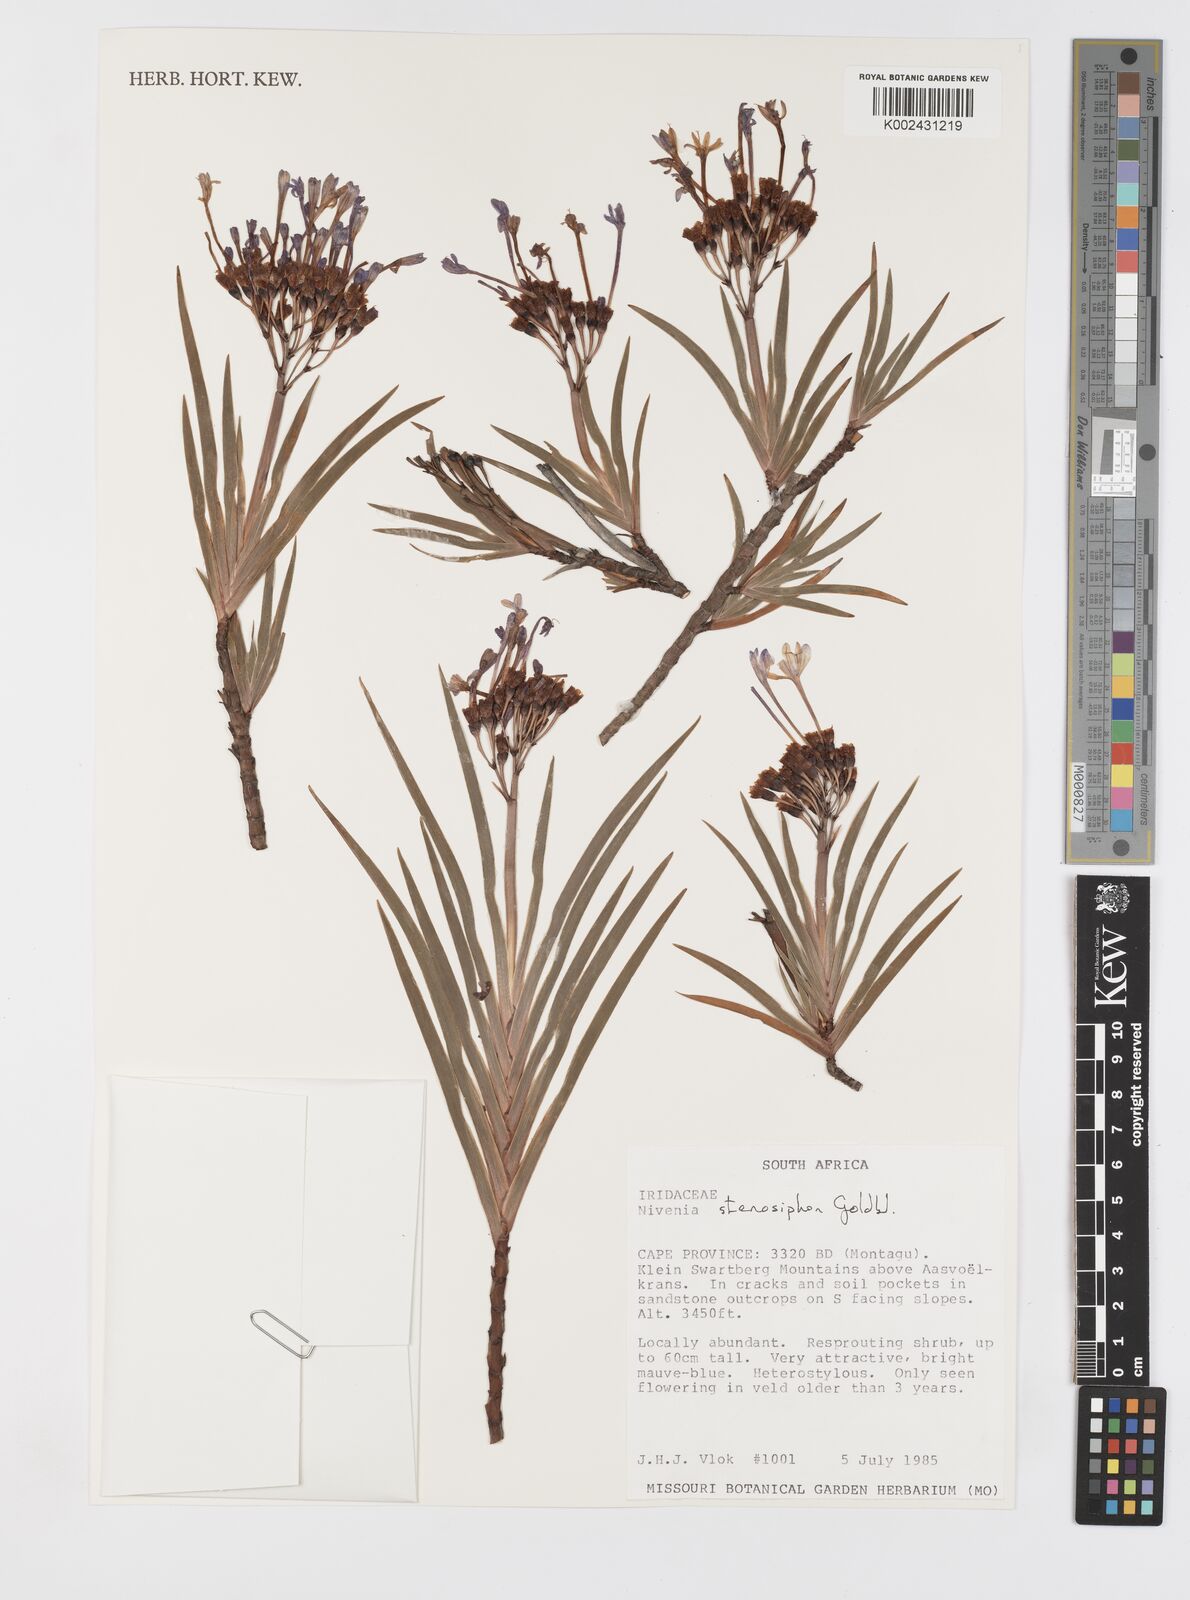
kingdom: Plantae
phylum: Tracheophyta
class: Liliopsida
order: Asparagales
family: Iridaceae
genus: Nivenia
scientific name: Nivenia stenosiphon
